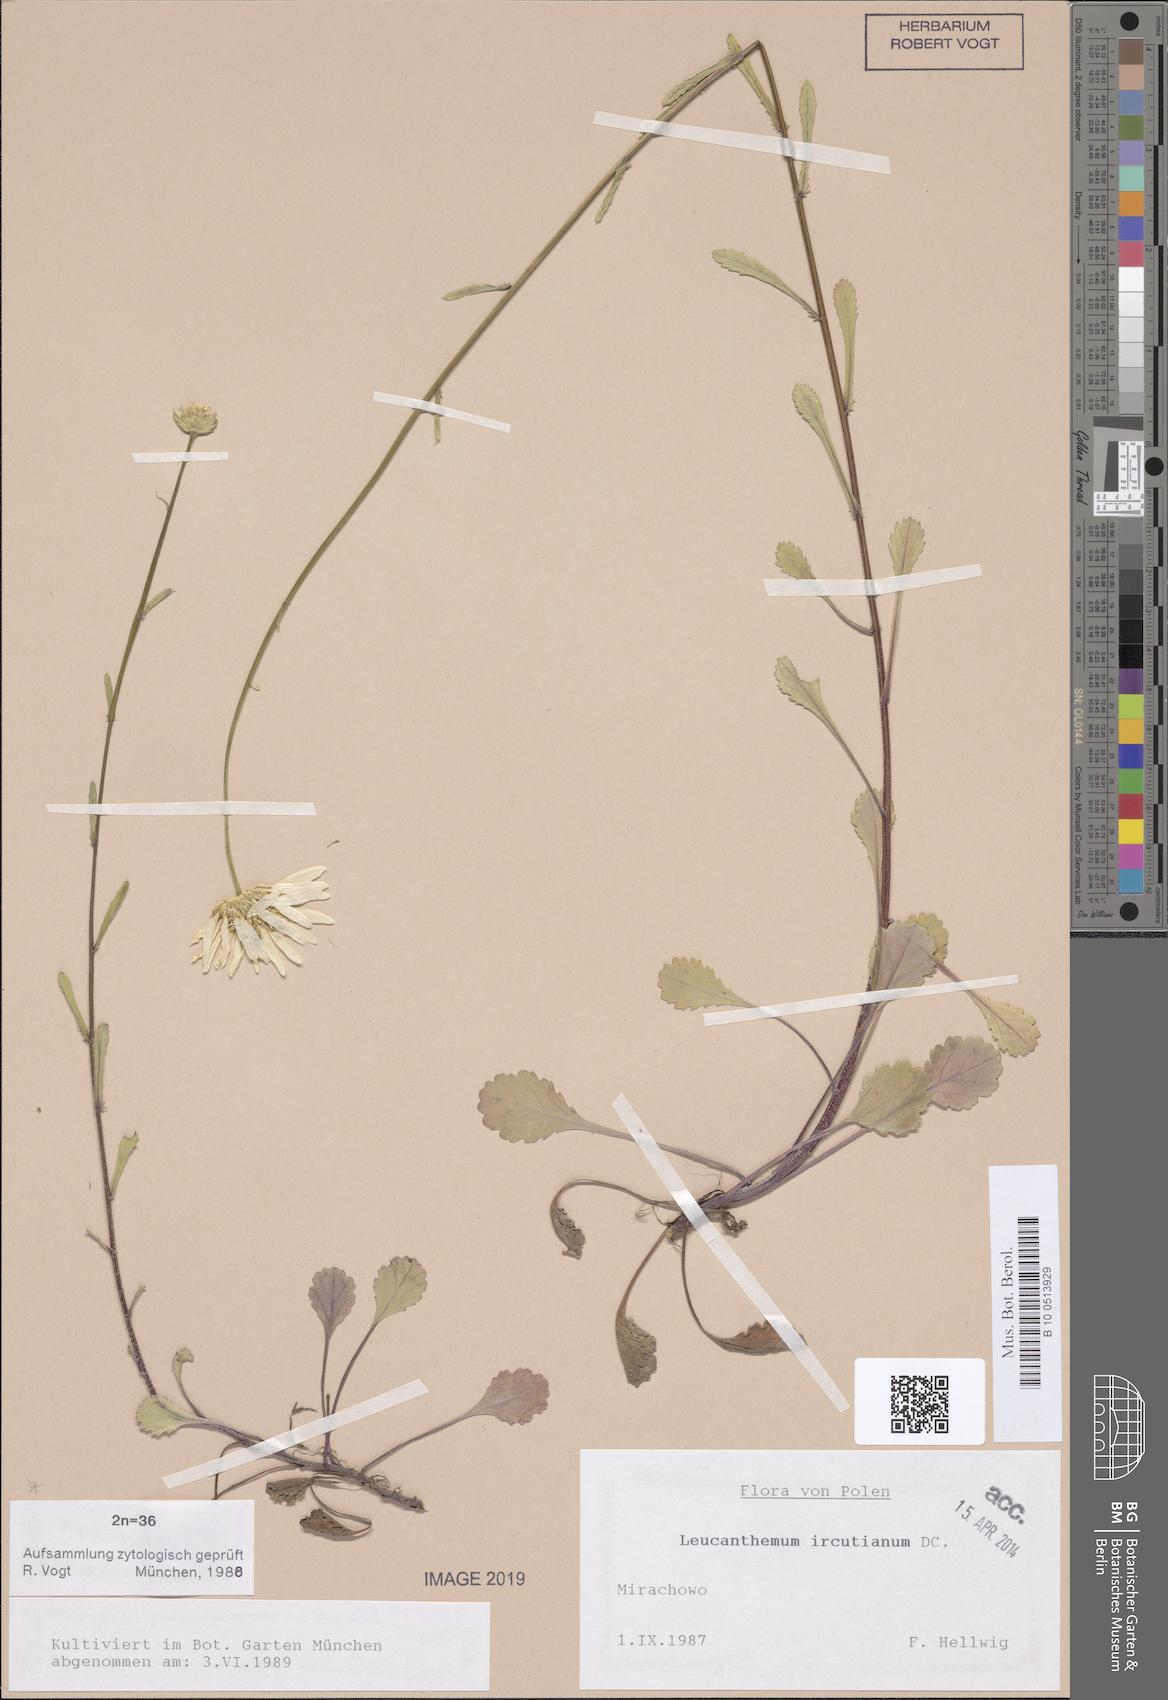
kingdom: Plantae
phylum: Tracheophyta
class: Magnoliopsida
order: Asterales
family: Asteraceae
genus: Leucanthemum
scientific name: Leucanthemum ircutianum
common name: Daisy
